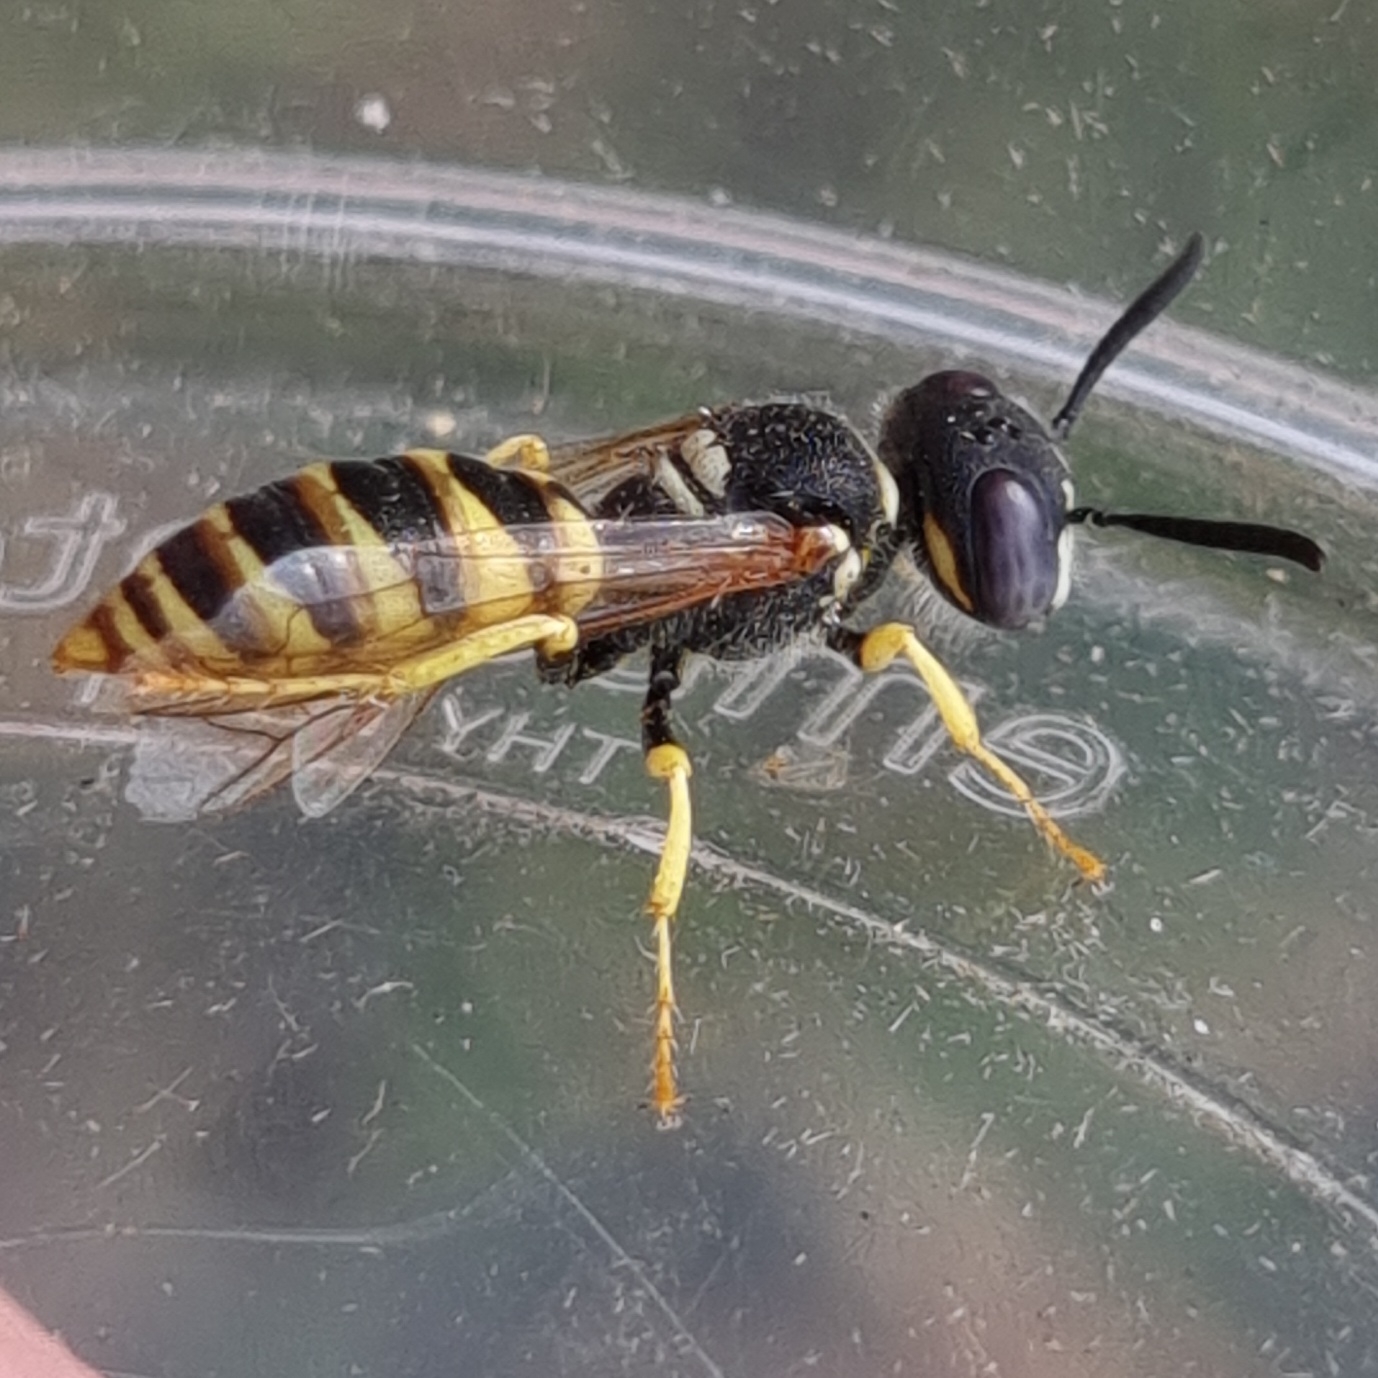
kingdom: Animalia
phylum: Arthropoda
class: Insecta
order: Hymenoptera
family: Crabronidae
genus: Philanthus
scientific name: Philanthus triangulum
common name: Biulv
